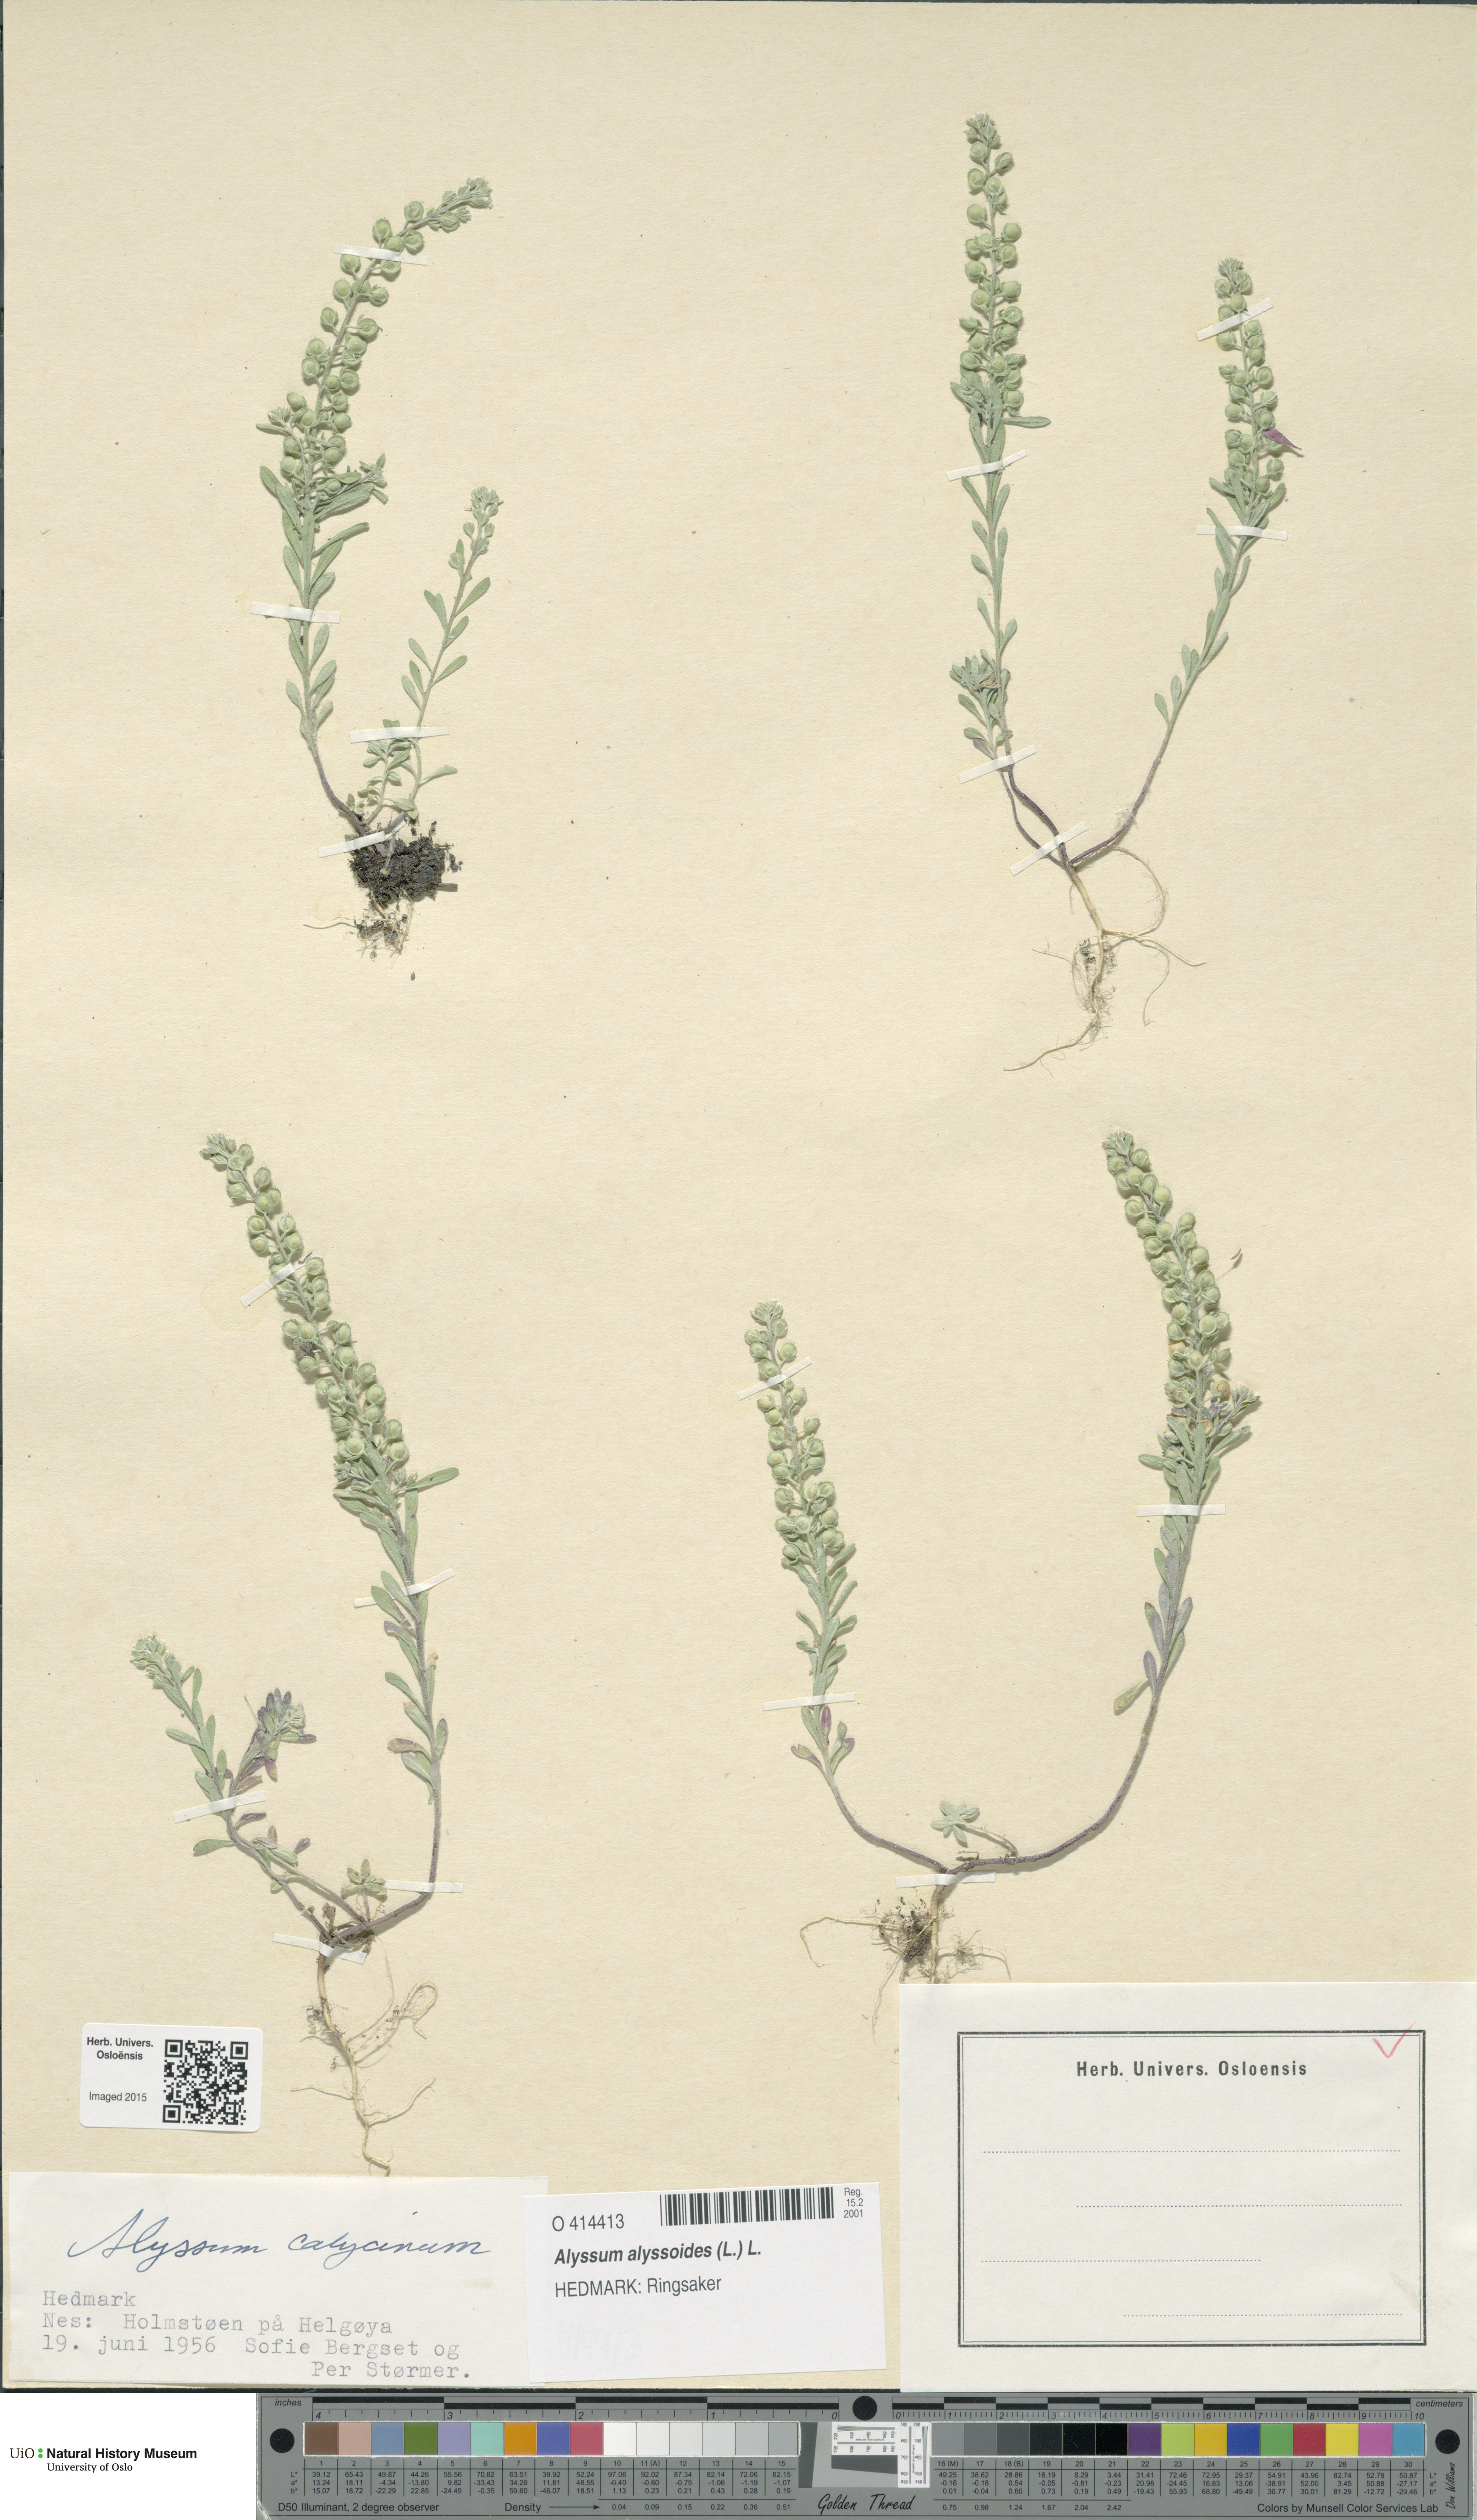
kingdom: Plantae
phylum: Tracheophyta
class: Magnoliopsida
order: Brassicales
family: Brassicaceae
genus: Alyssum
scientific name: Alyssum alyssoides
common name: Small alison
